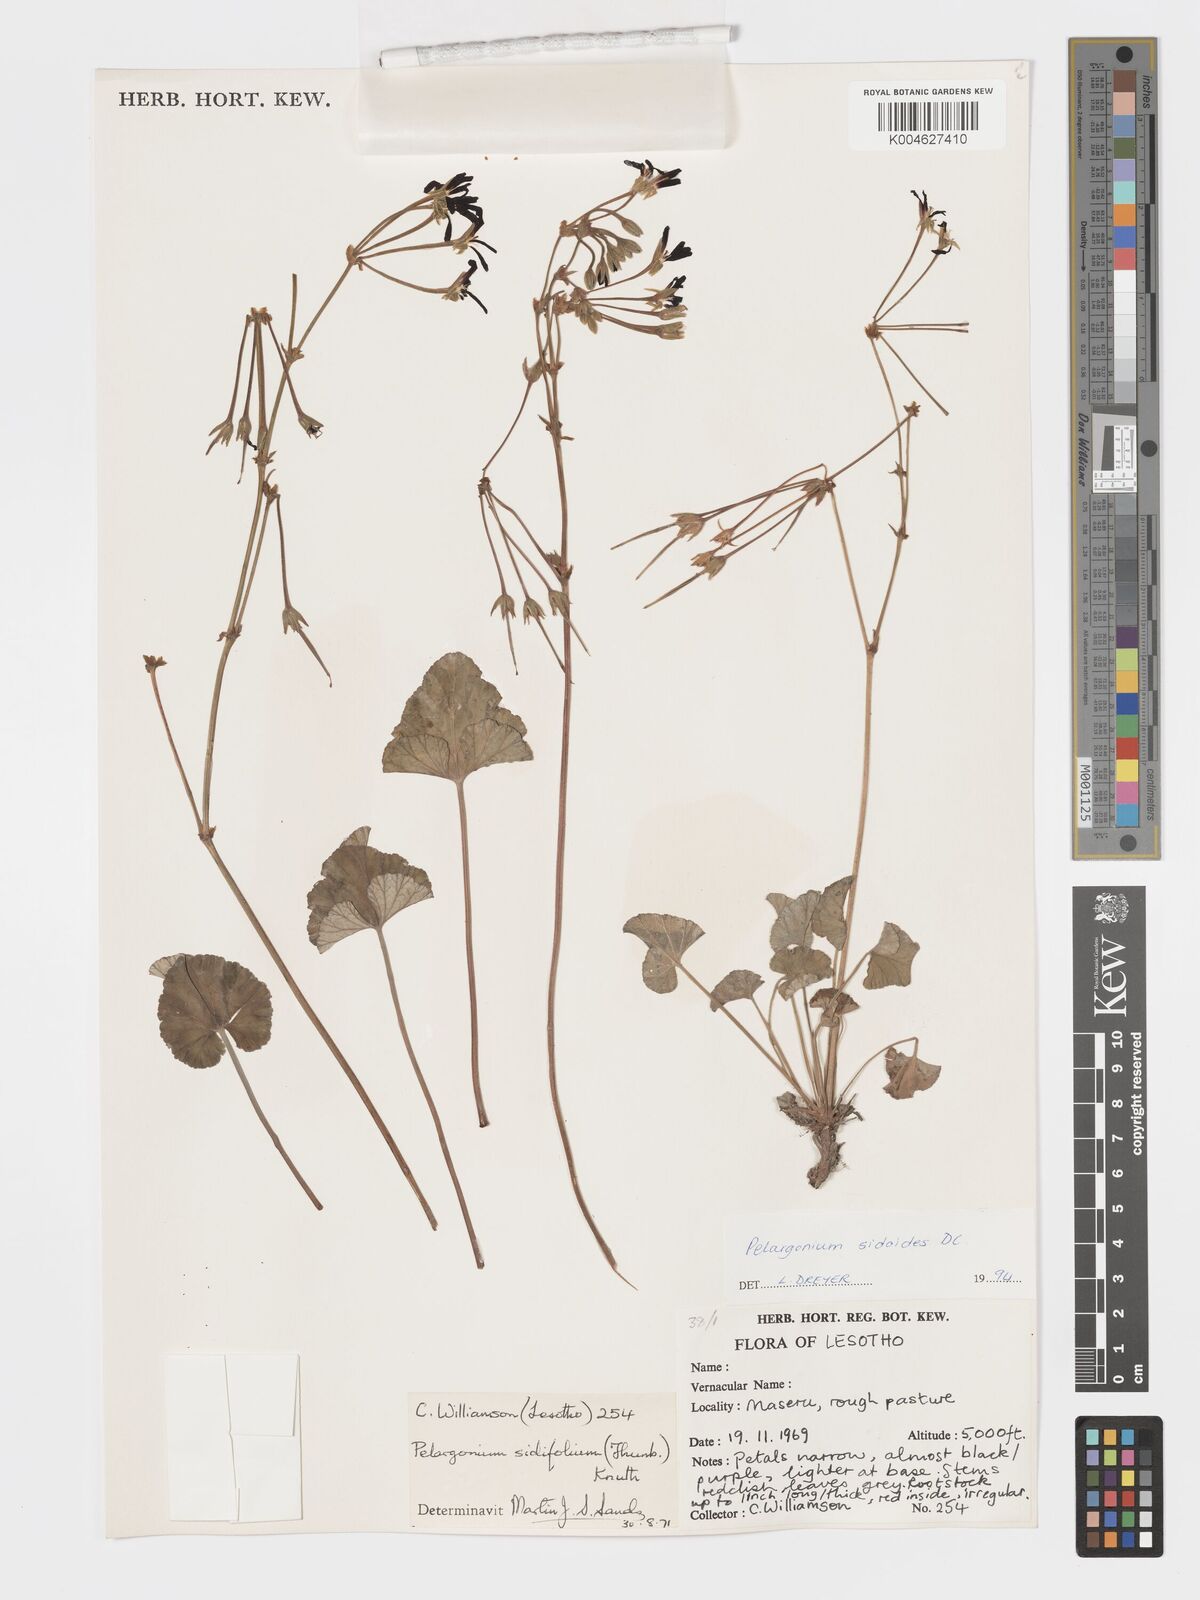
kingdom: Plantae
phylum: Tracheophyta
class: Magnoliopsida
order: Geraniales
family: Geraniaceae
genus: Pelargonium
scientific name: Pelargonium sidoides
